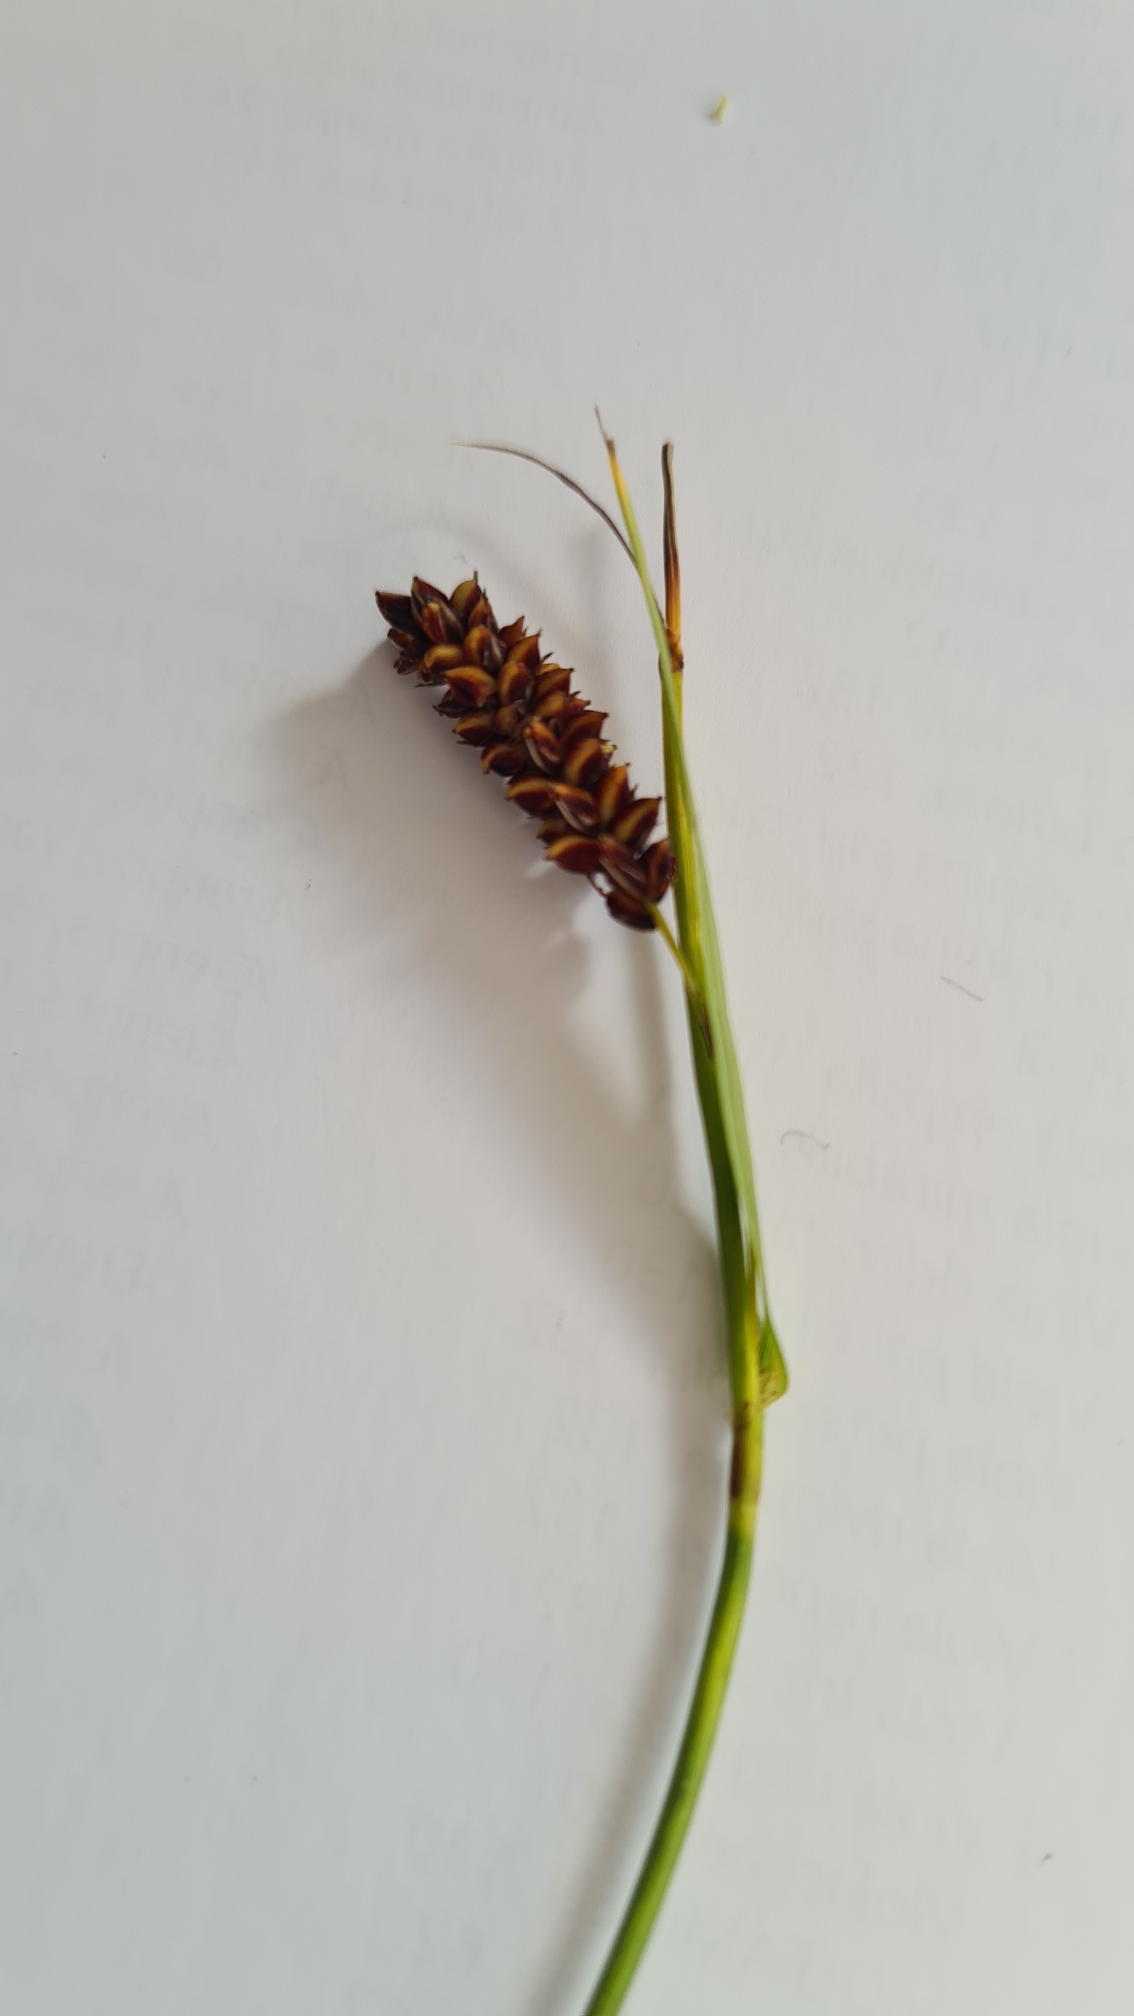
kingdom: Plantae
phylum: Tracheophyta
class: Liliopsida
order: Poales
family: Cyperaceae
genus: Carex
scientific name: Carex flacca
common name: Blågrøn star
